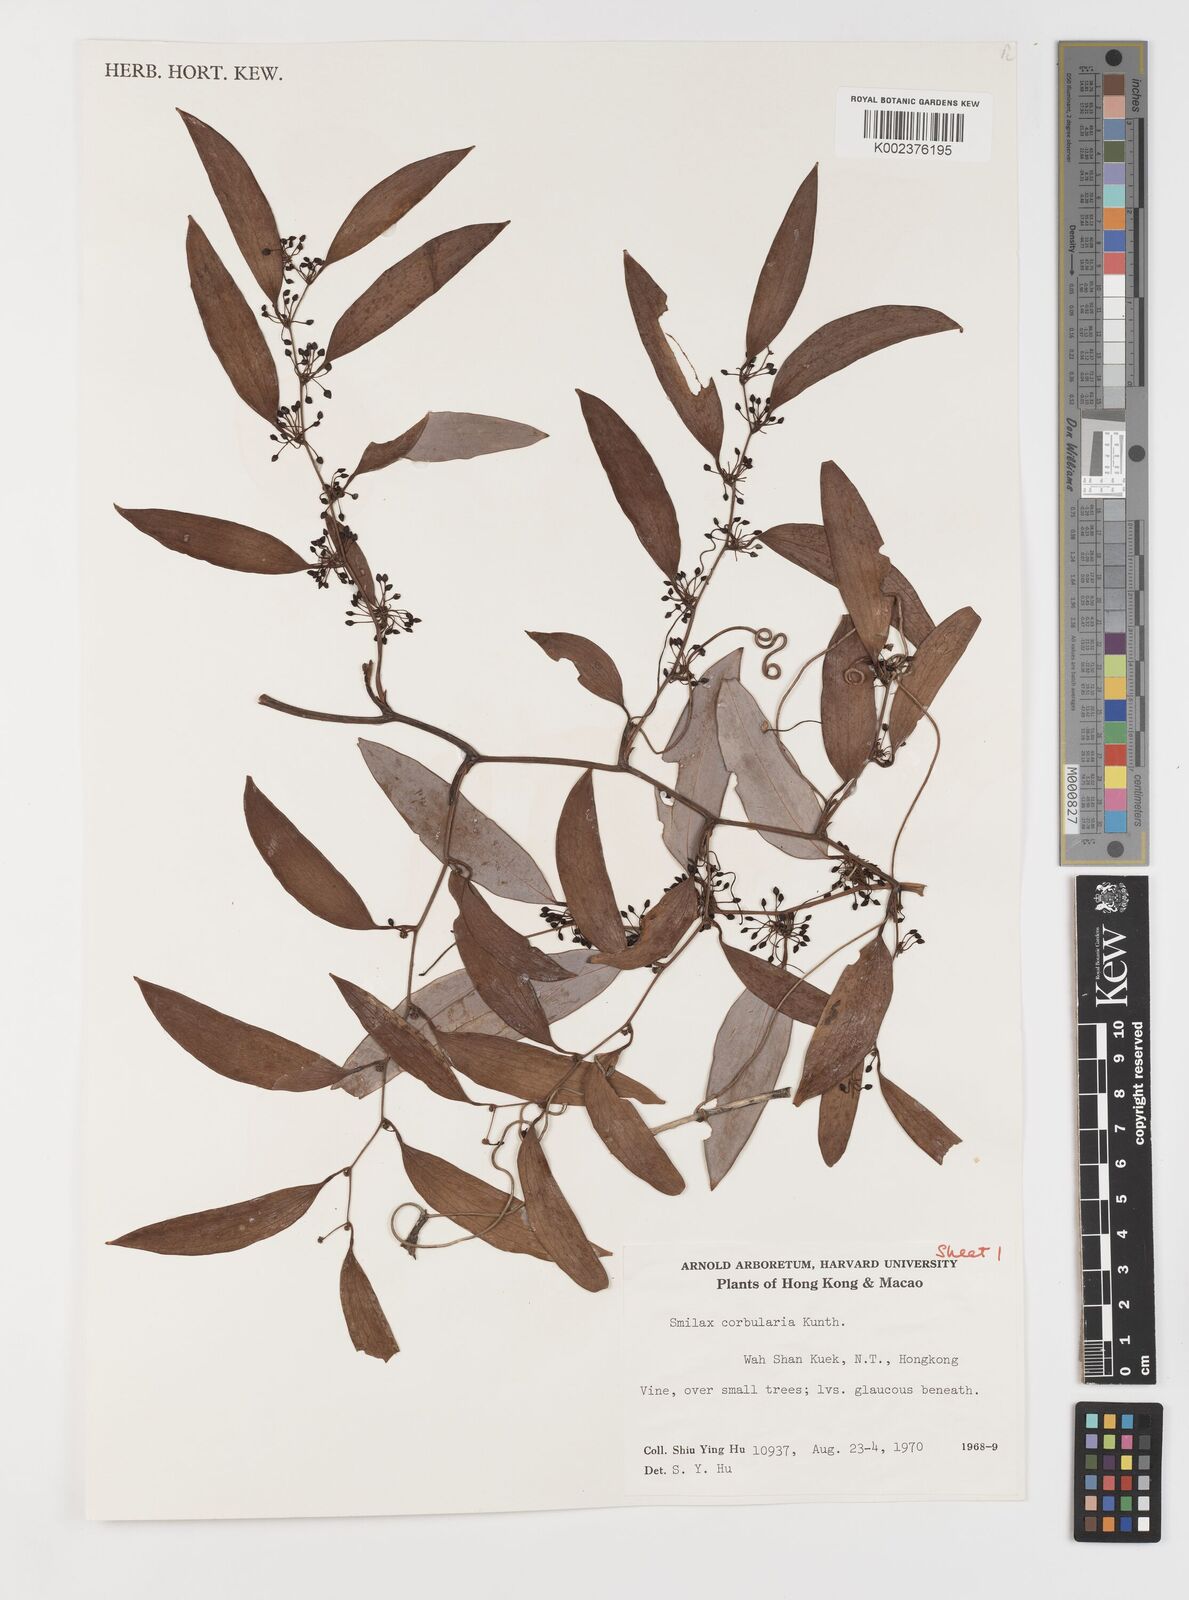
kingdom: Plantae
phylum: Tracheophyta
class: Liliopsida
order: Liliales
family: Smilacaceae
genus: Smilax
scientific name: Smilax corbularia
